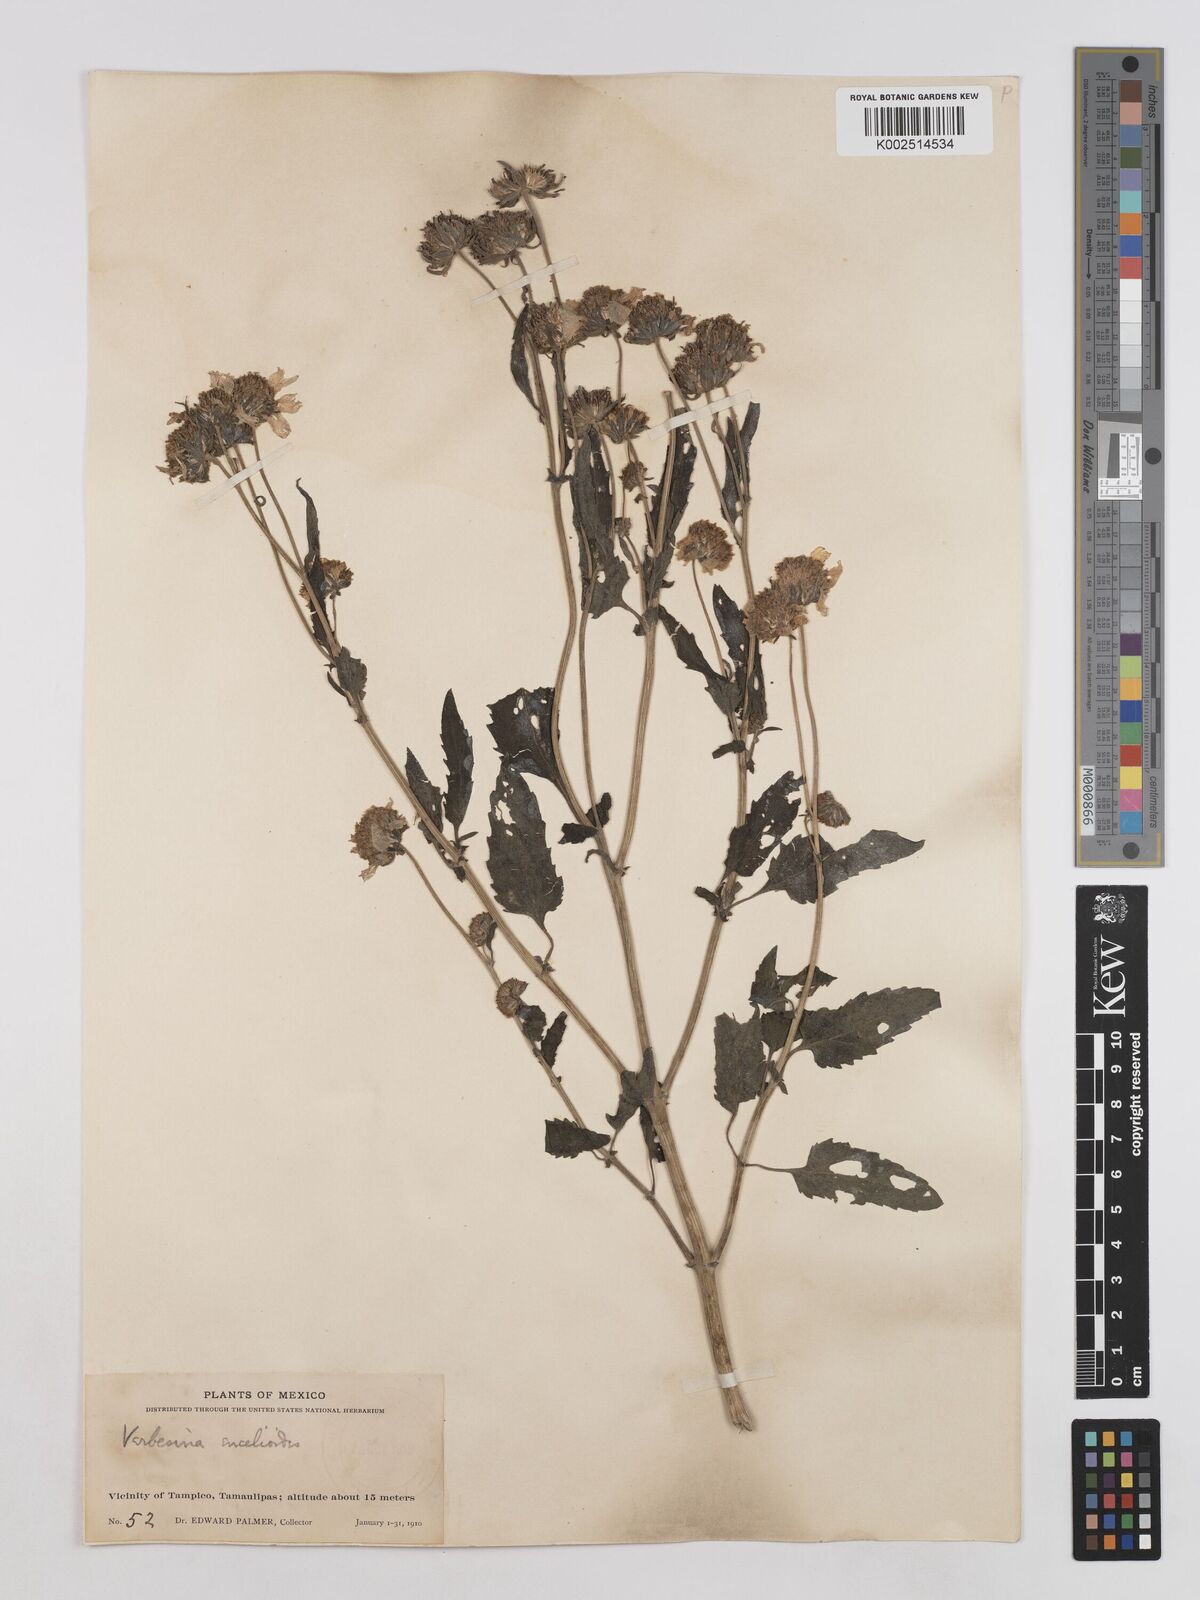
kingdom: Plantae
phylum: Tracheophyta
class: Magnoliopsida
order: Asterales
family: Asteraceae
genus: Verbesina
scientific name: Verbesina encelioides
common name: Golden crownbeard
